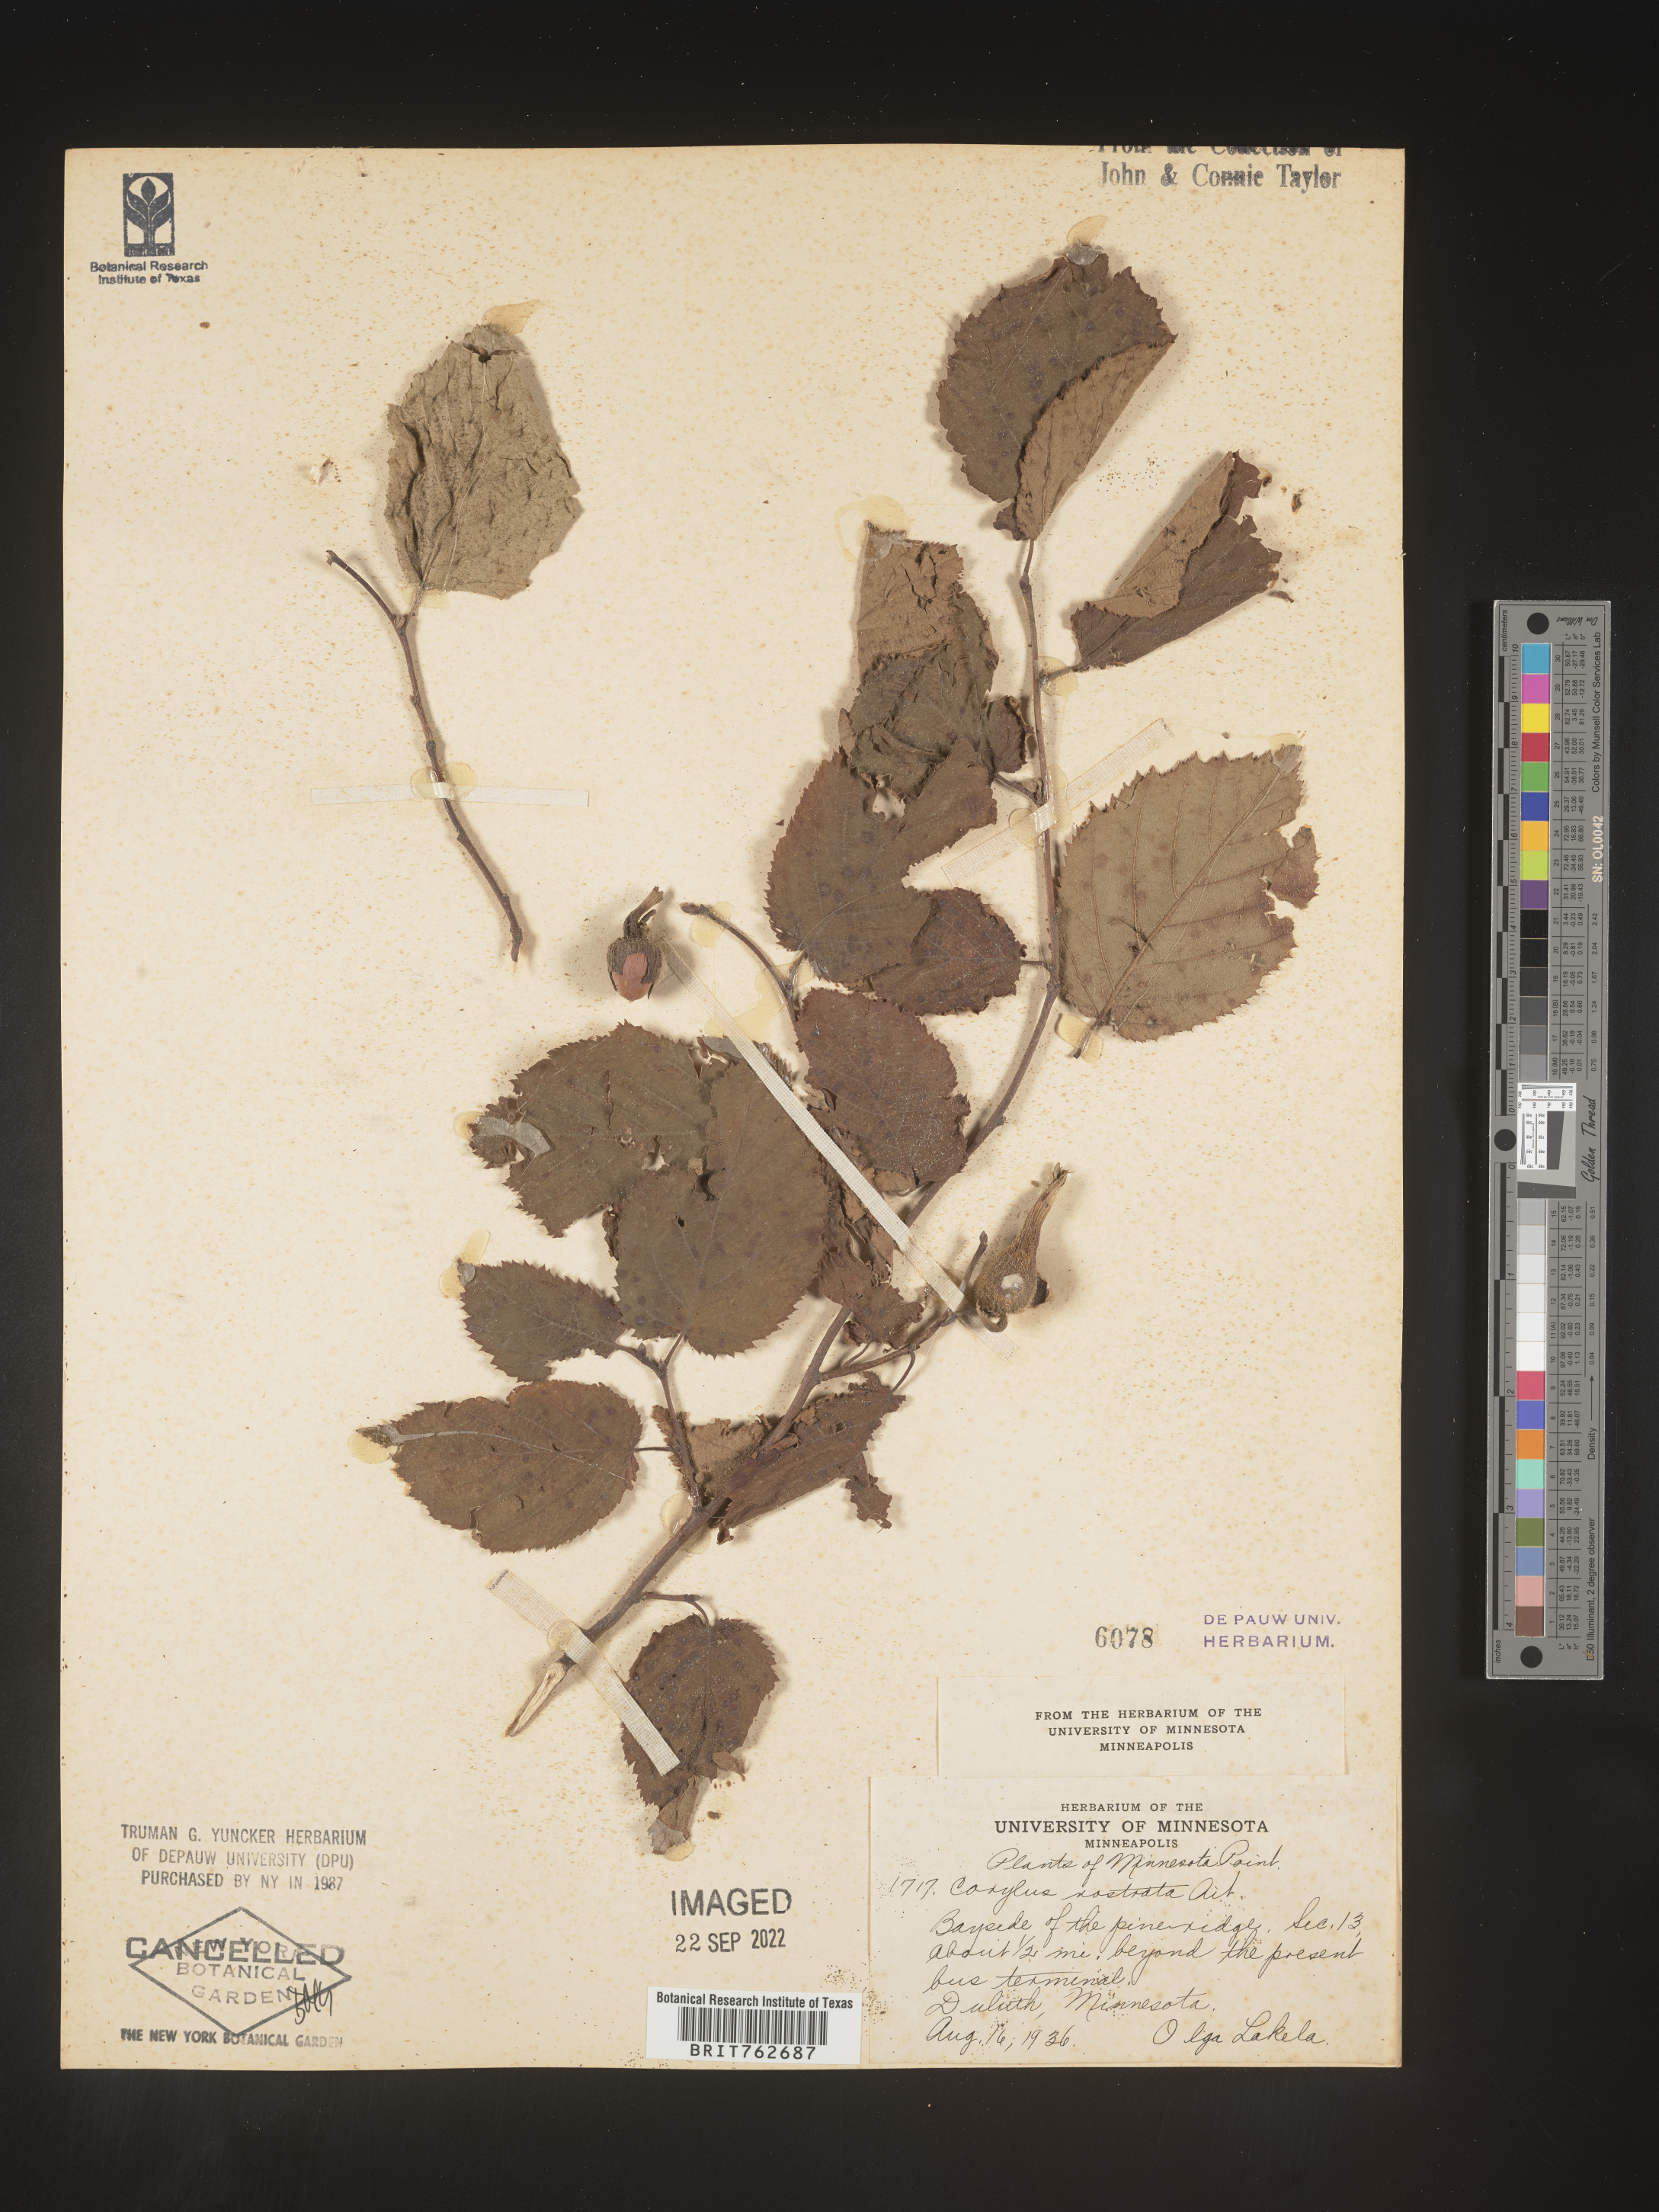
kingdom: Plantae
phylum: Tracheophyta
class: Magnoliopsida
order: Fagales
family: Betulaceae
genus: Corylus
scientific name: Corylus cornuta
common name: Beaked hazel
